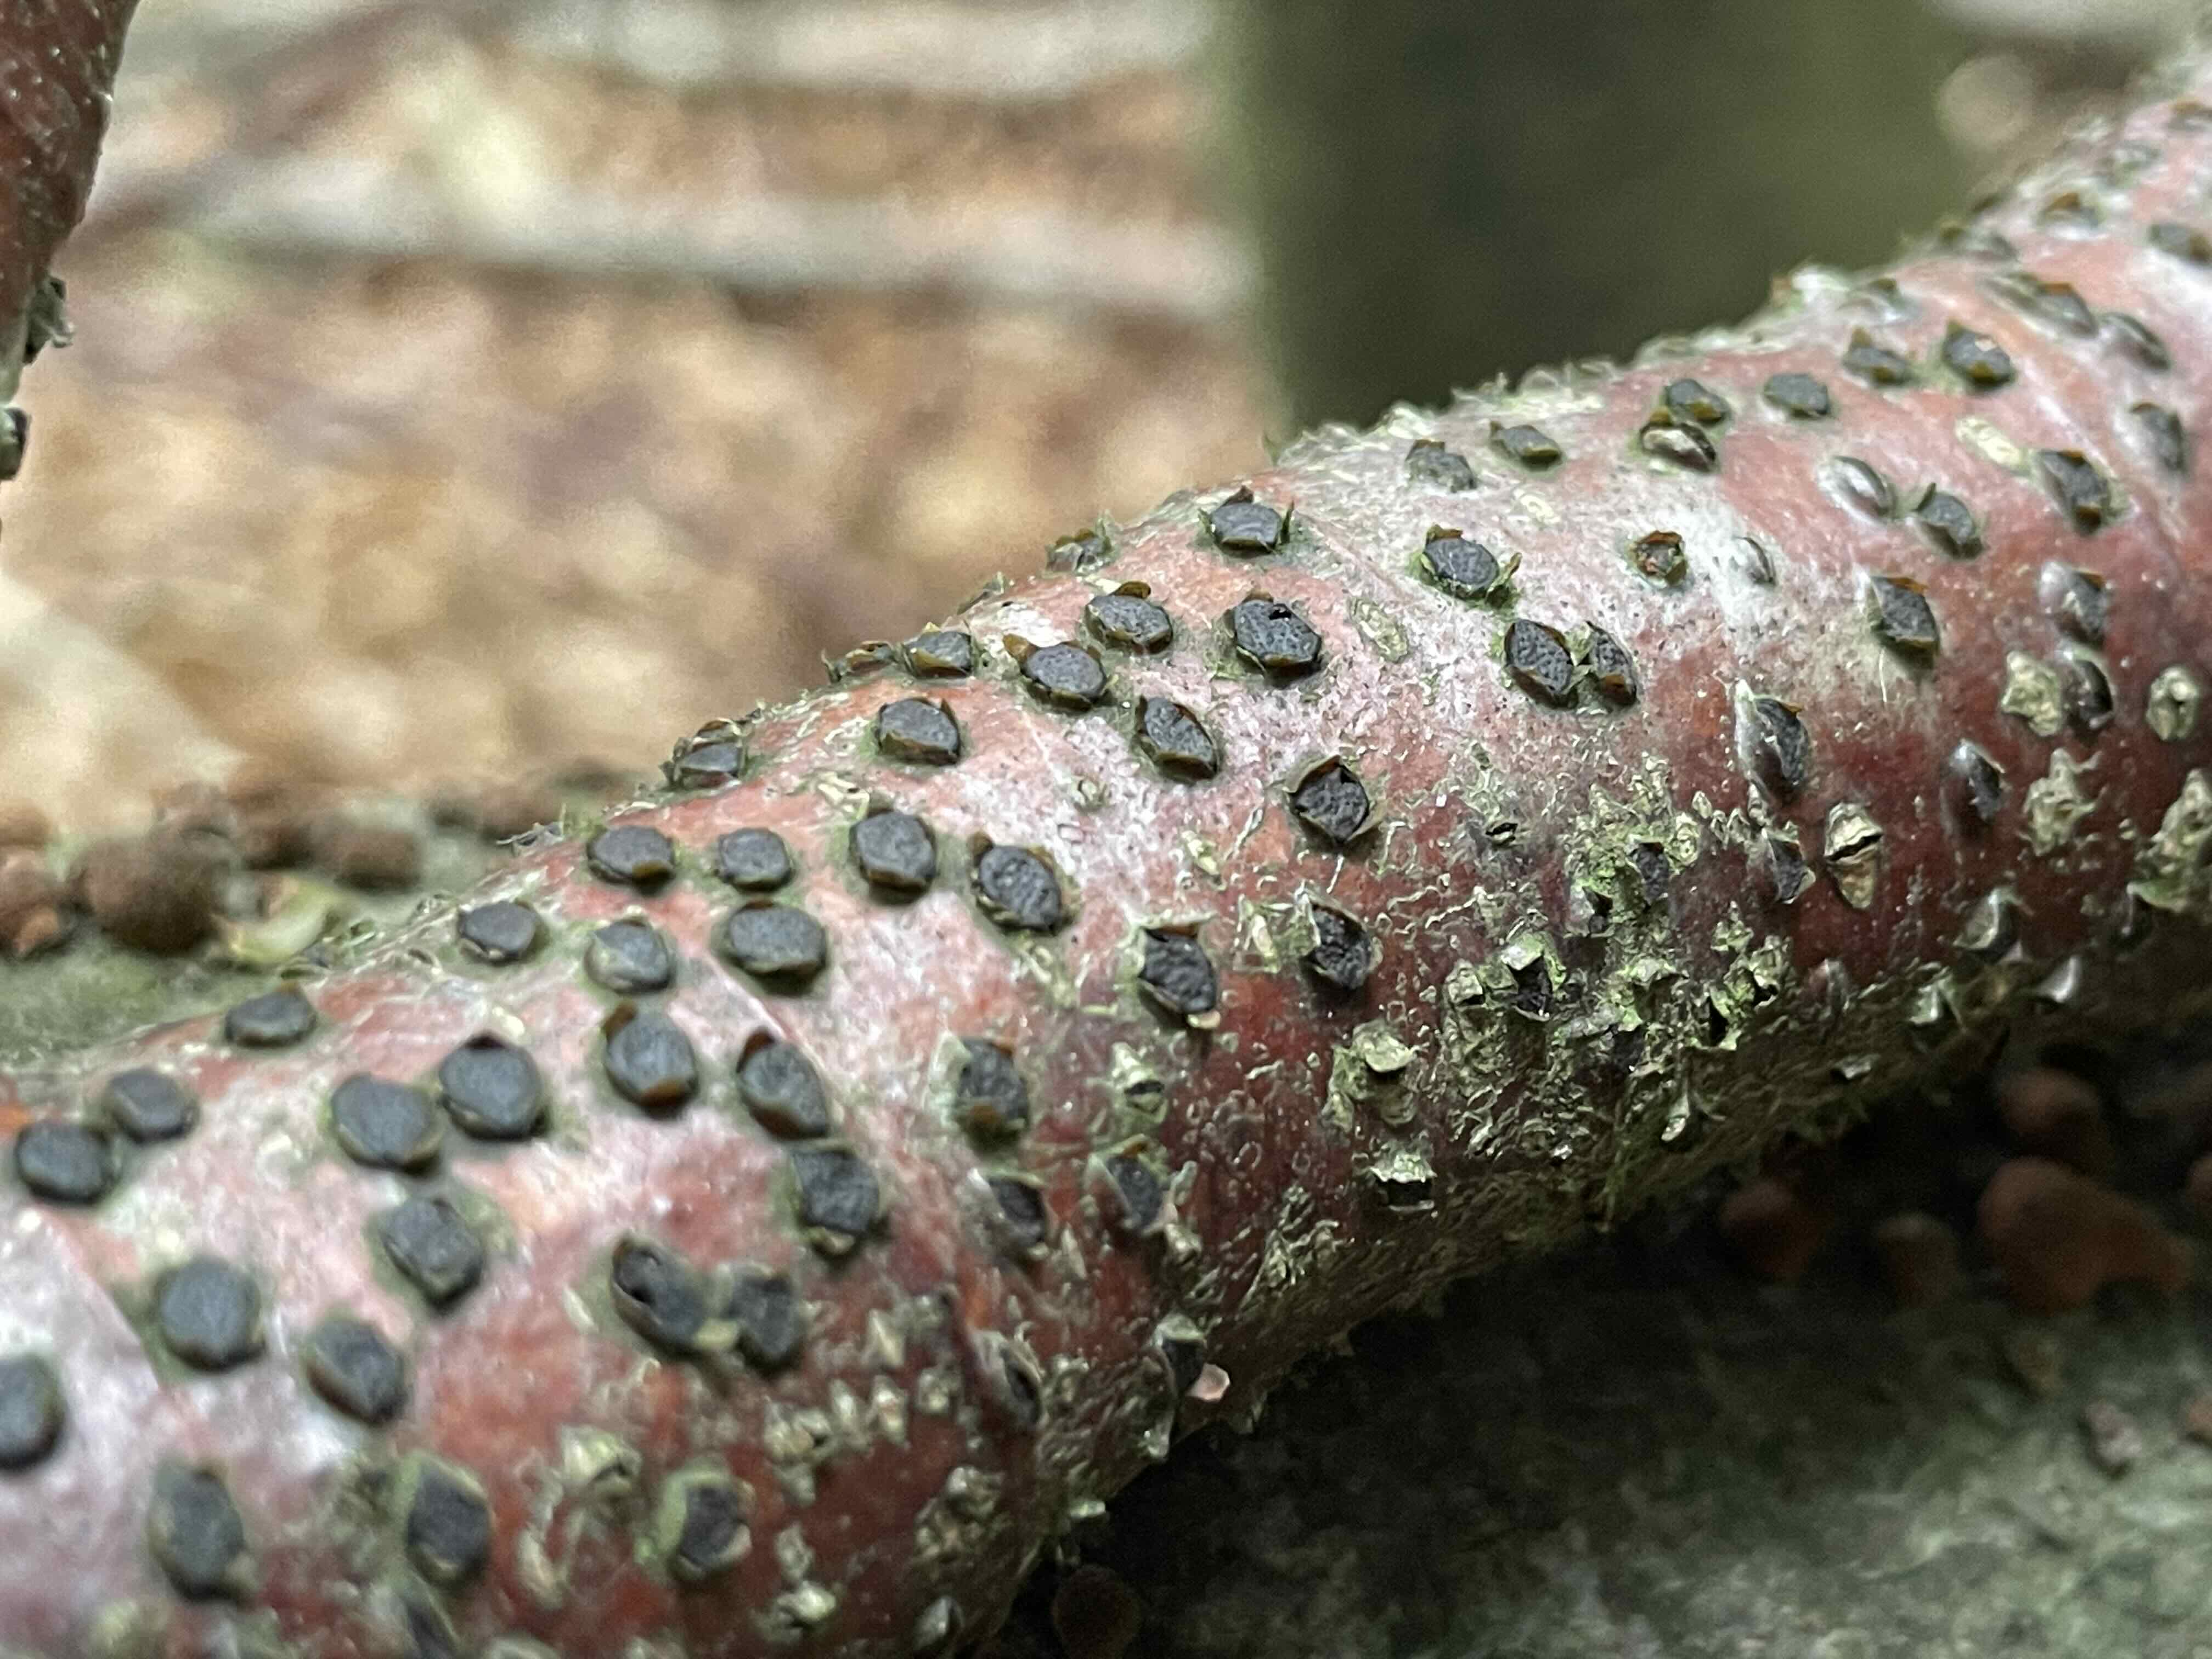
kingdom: Fungi
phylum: Ascomycota
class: Sordariomycetes
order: Xylariales
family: Diatrypaceae
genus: Diatrype
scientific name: Diatrype disciformis
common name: kant-kulskorpe
